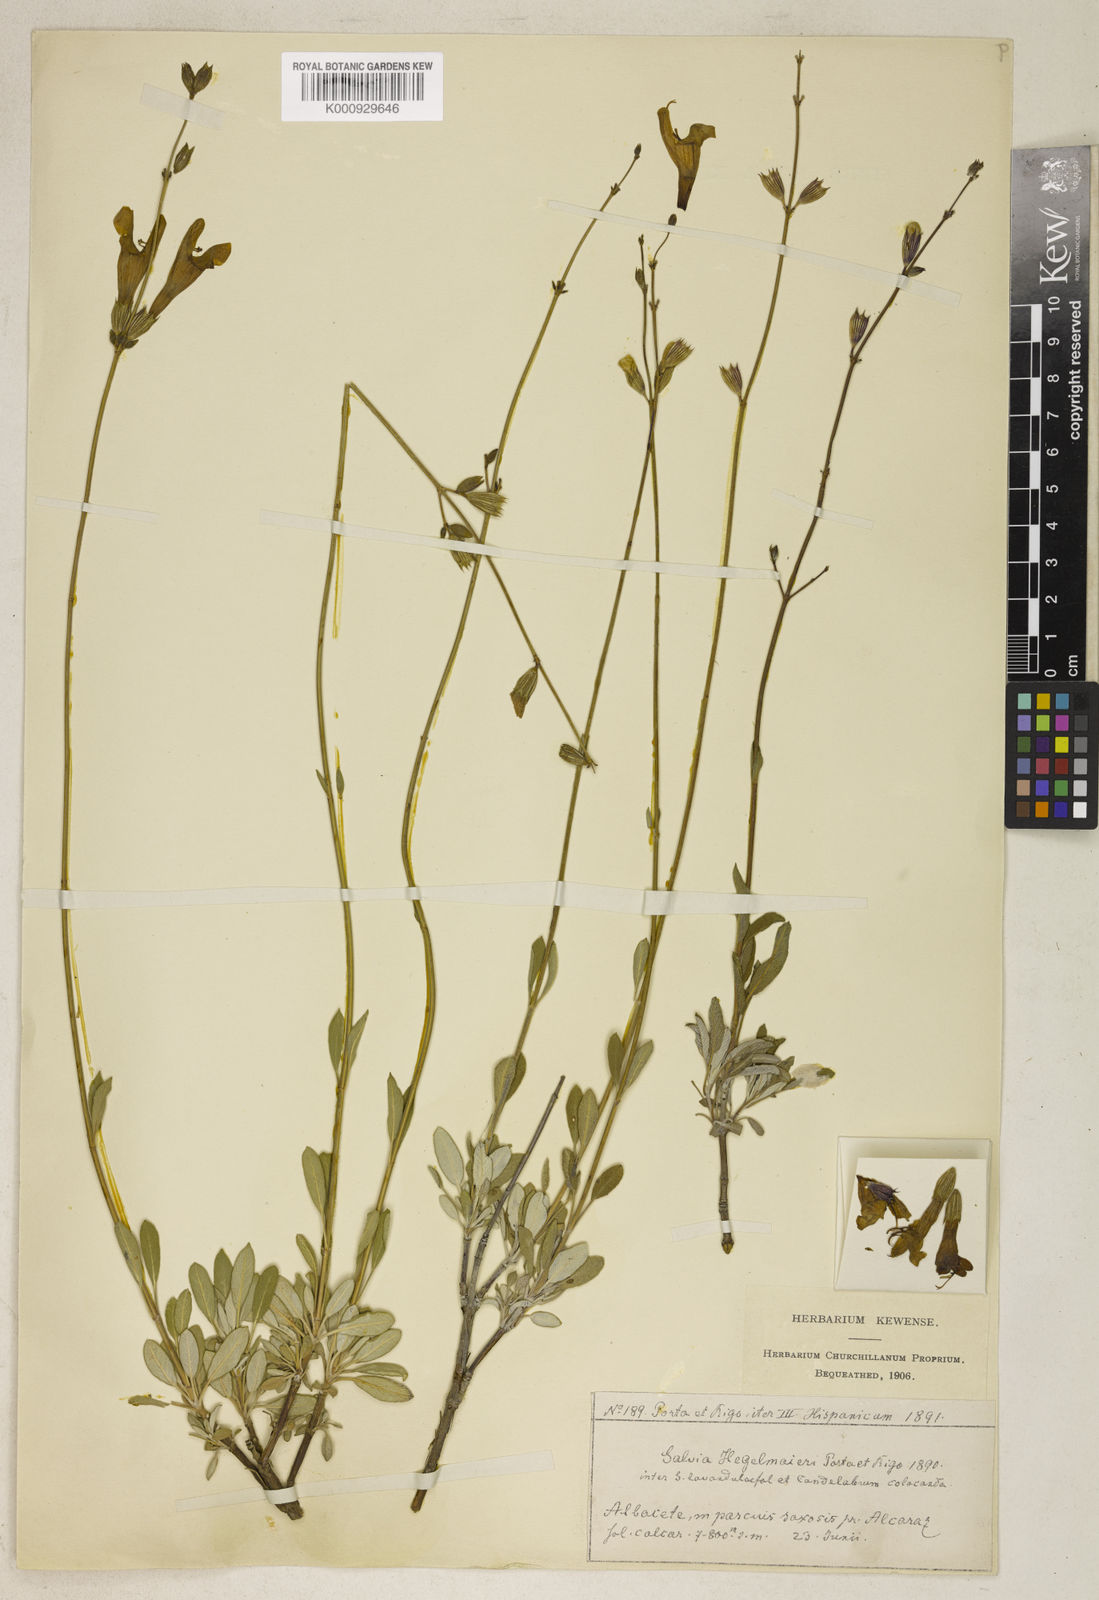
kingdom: Plantae
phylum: Tracheophyta
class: Magnoliopsida
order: Lamiales
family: Lamiaceae
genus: Salvia
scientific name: Salvia hegelmaieri
